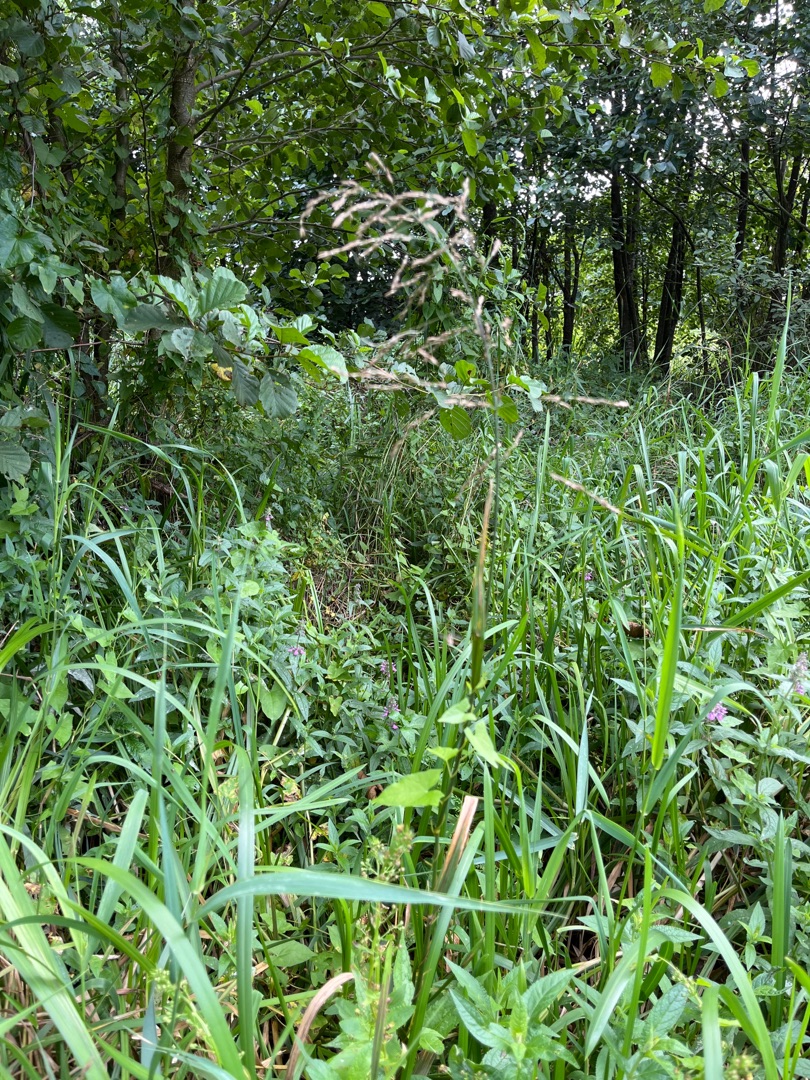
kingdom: Plantae
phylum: Tracheophyta
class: Liliopsida
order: Poales
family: Poaceae
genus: Glyceria
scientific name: Glyceria maxima
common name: Høj sødgræs
